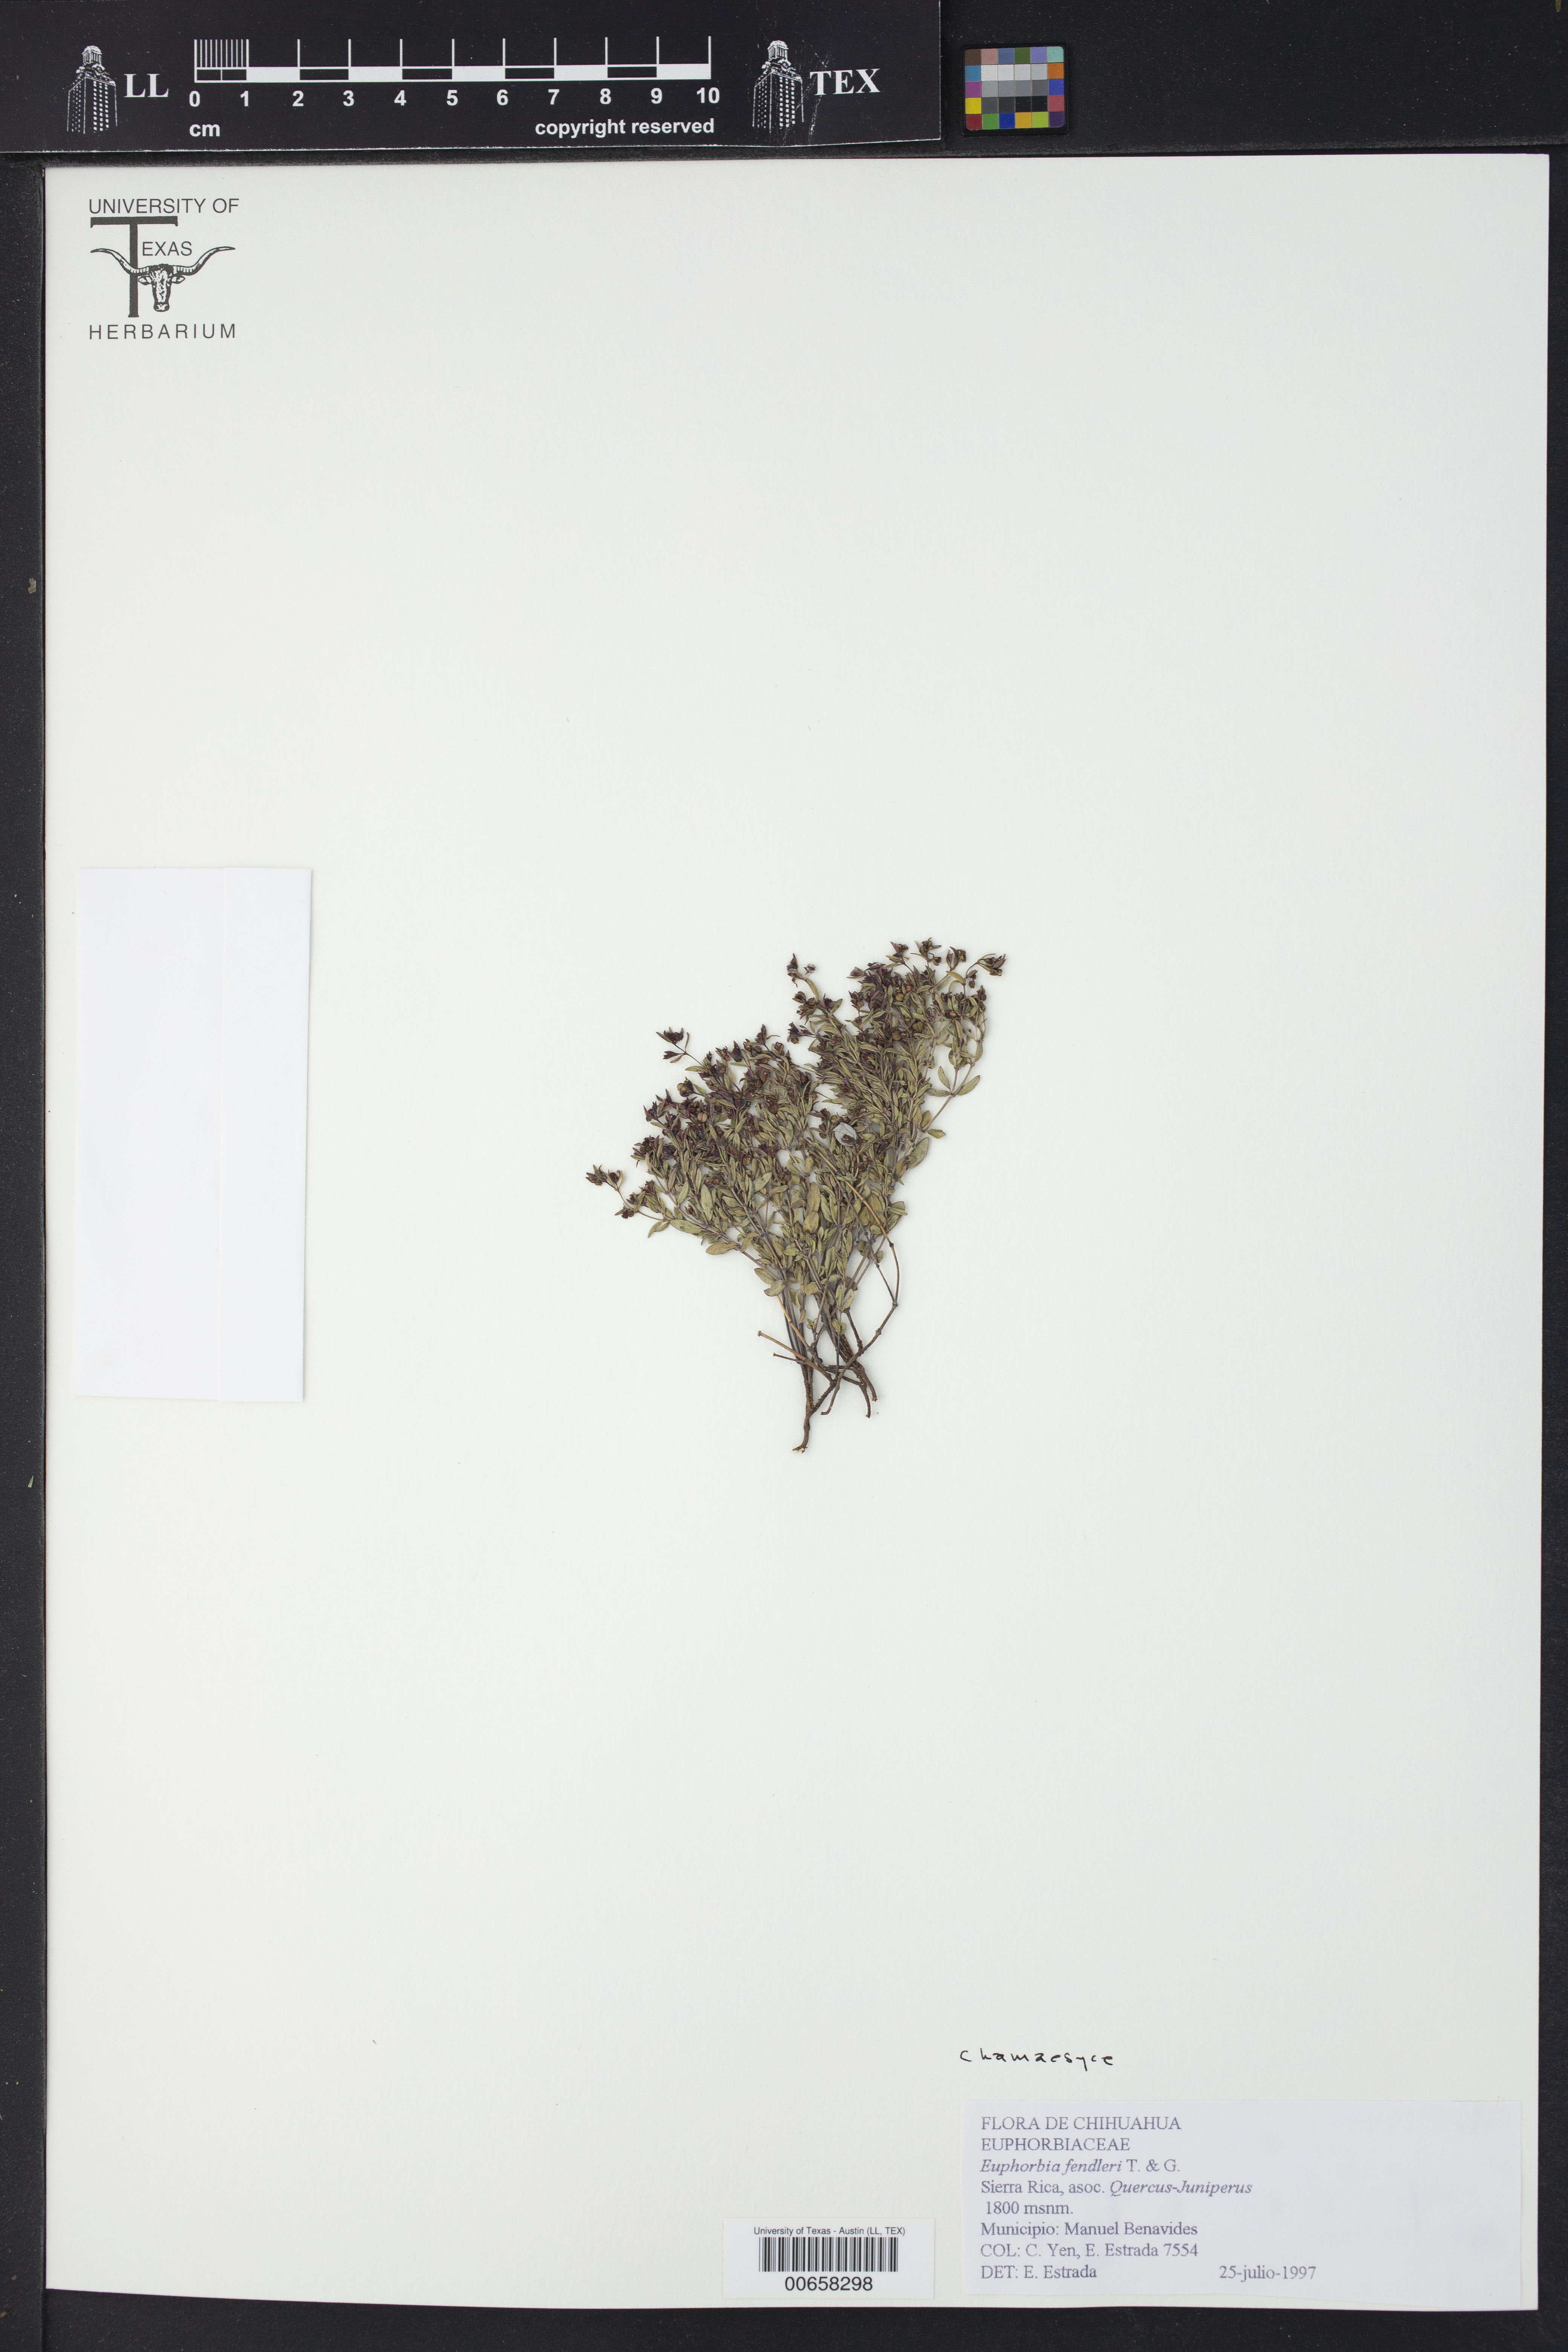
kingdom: Plantae
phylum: Tracheophyta
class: Magnoliopsida
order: Malpighiales
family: Euphorbiaceae
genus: Chamaesyce
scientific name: Chamaesyce
